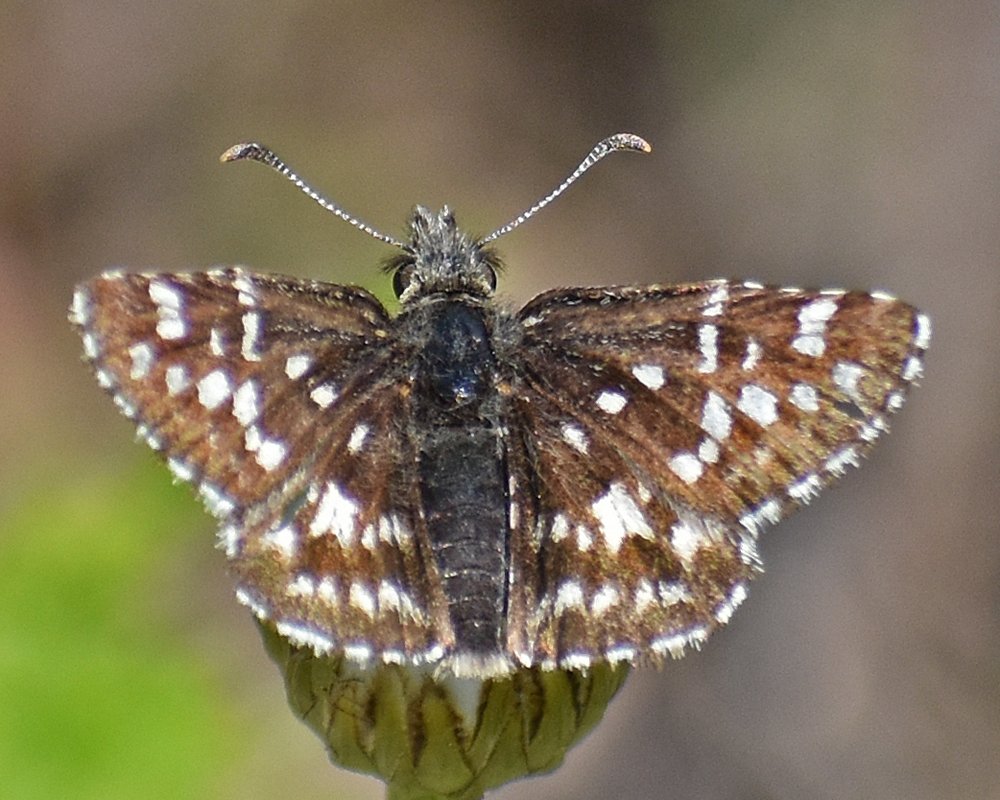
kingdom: Animalia
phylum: Arthropoda
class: Insecta
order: Lepidoptera
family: Hesperiidae
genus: Pyrgus
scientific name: Pyrgus ruralis
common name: Two-banded Checkered-Skipper
